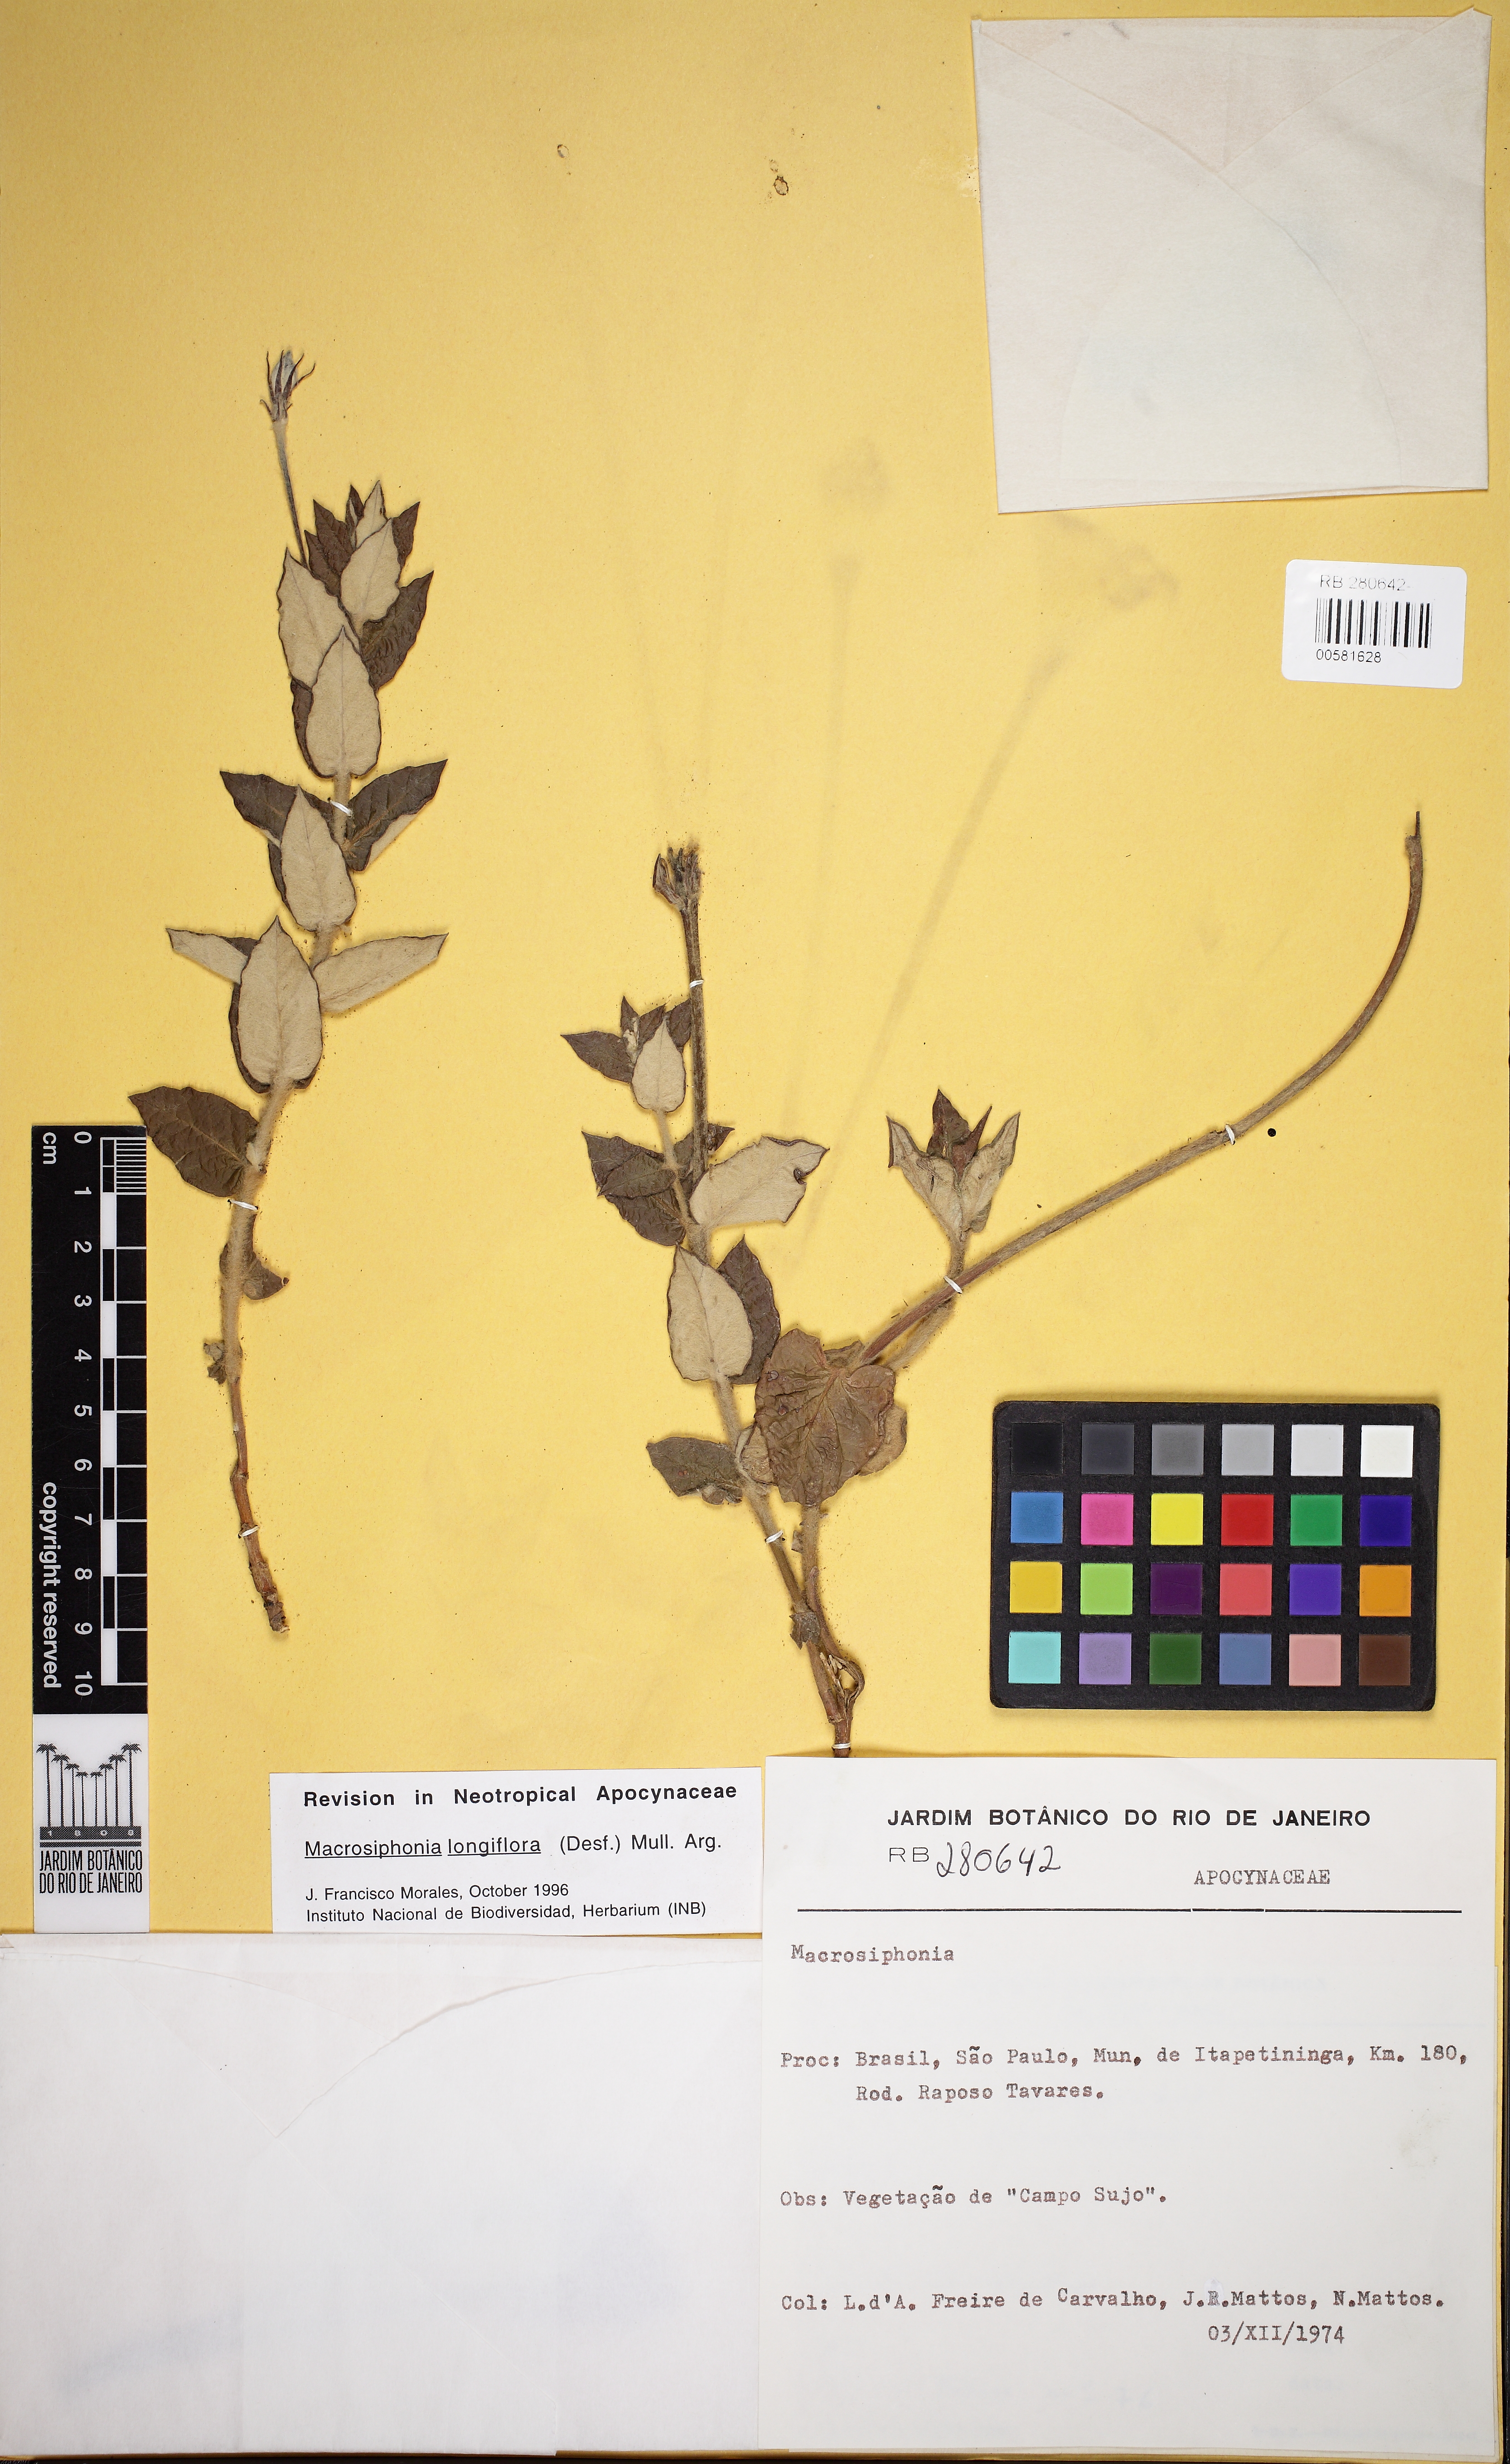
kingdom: Plantae
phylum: Tracheophyta
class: Magnoliopsida
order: Gentianales
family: Apocynaceae
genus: Mandevilla
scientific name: Mandevilla longiflora
